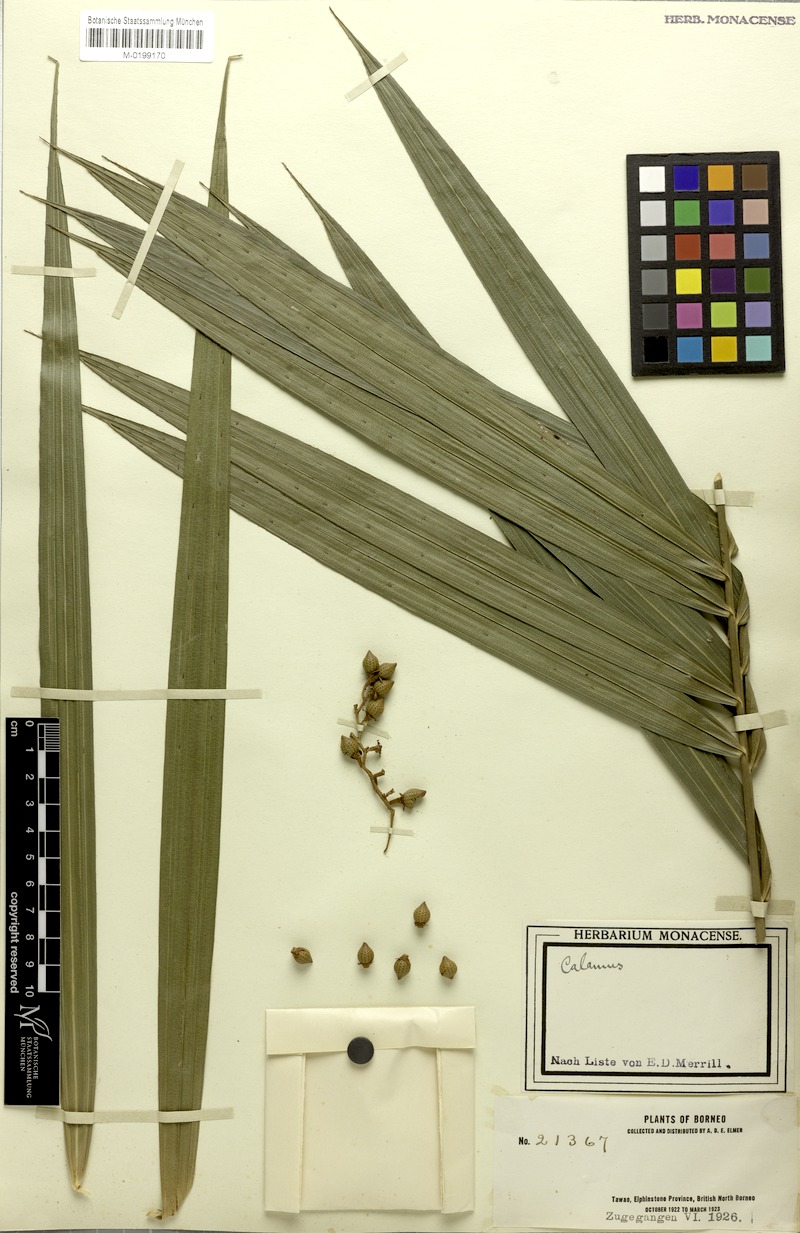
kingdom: Plantae
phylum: Tracheophyta
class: Liliopsida
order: Arecales
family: Arecaceae
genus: Calamus
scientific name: Calamus oblongus
